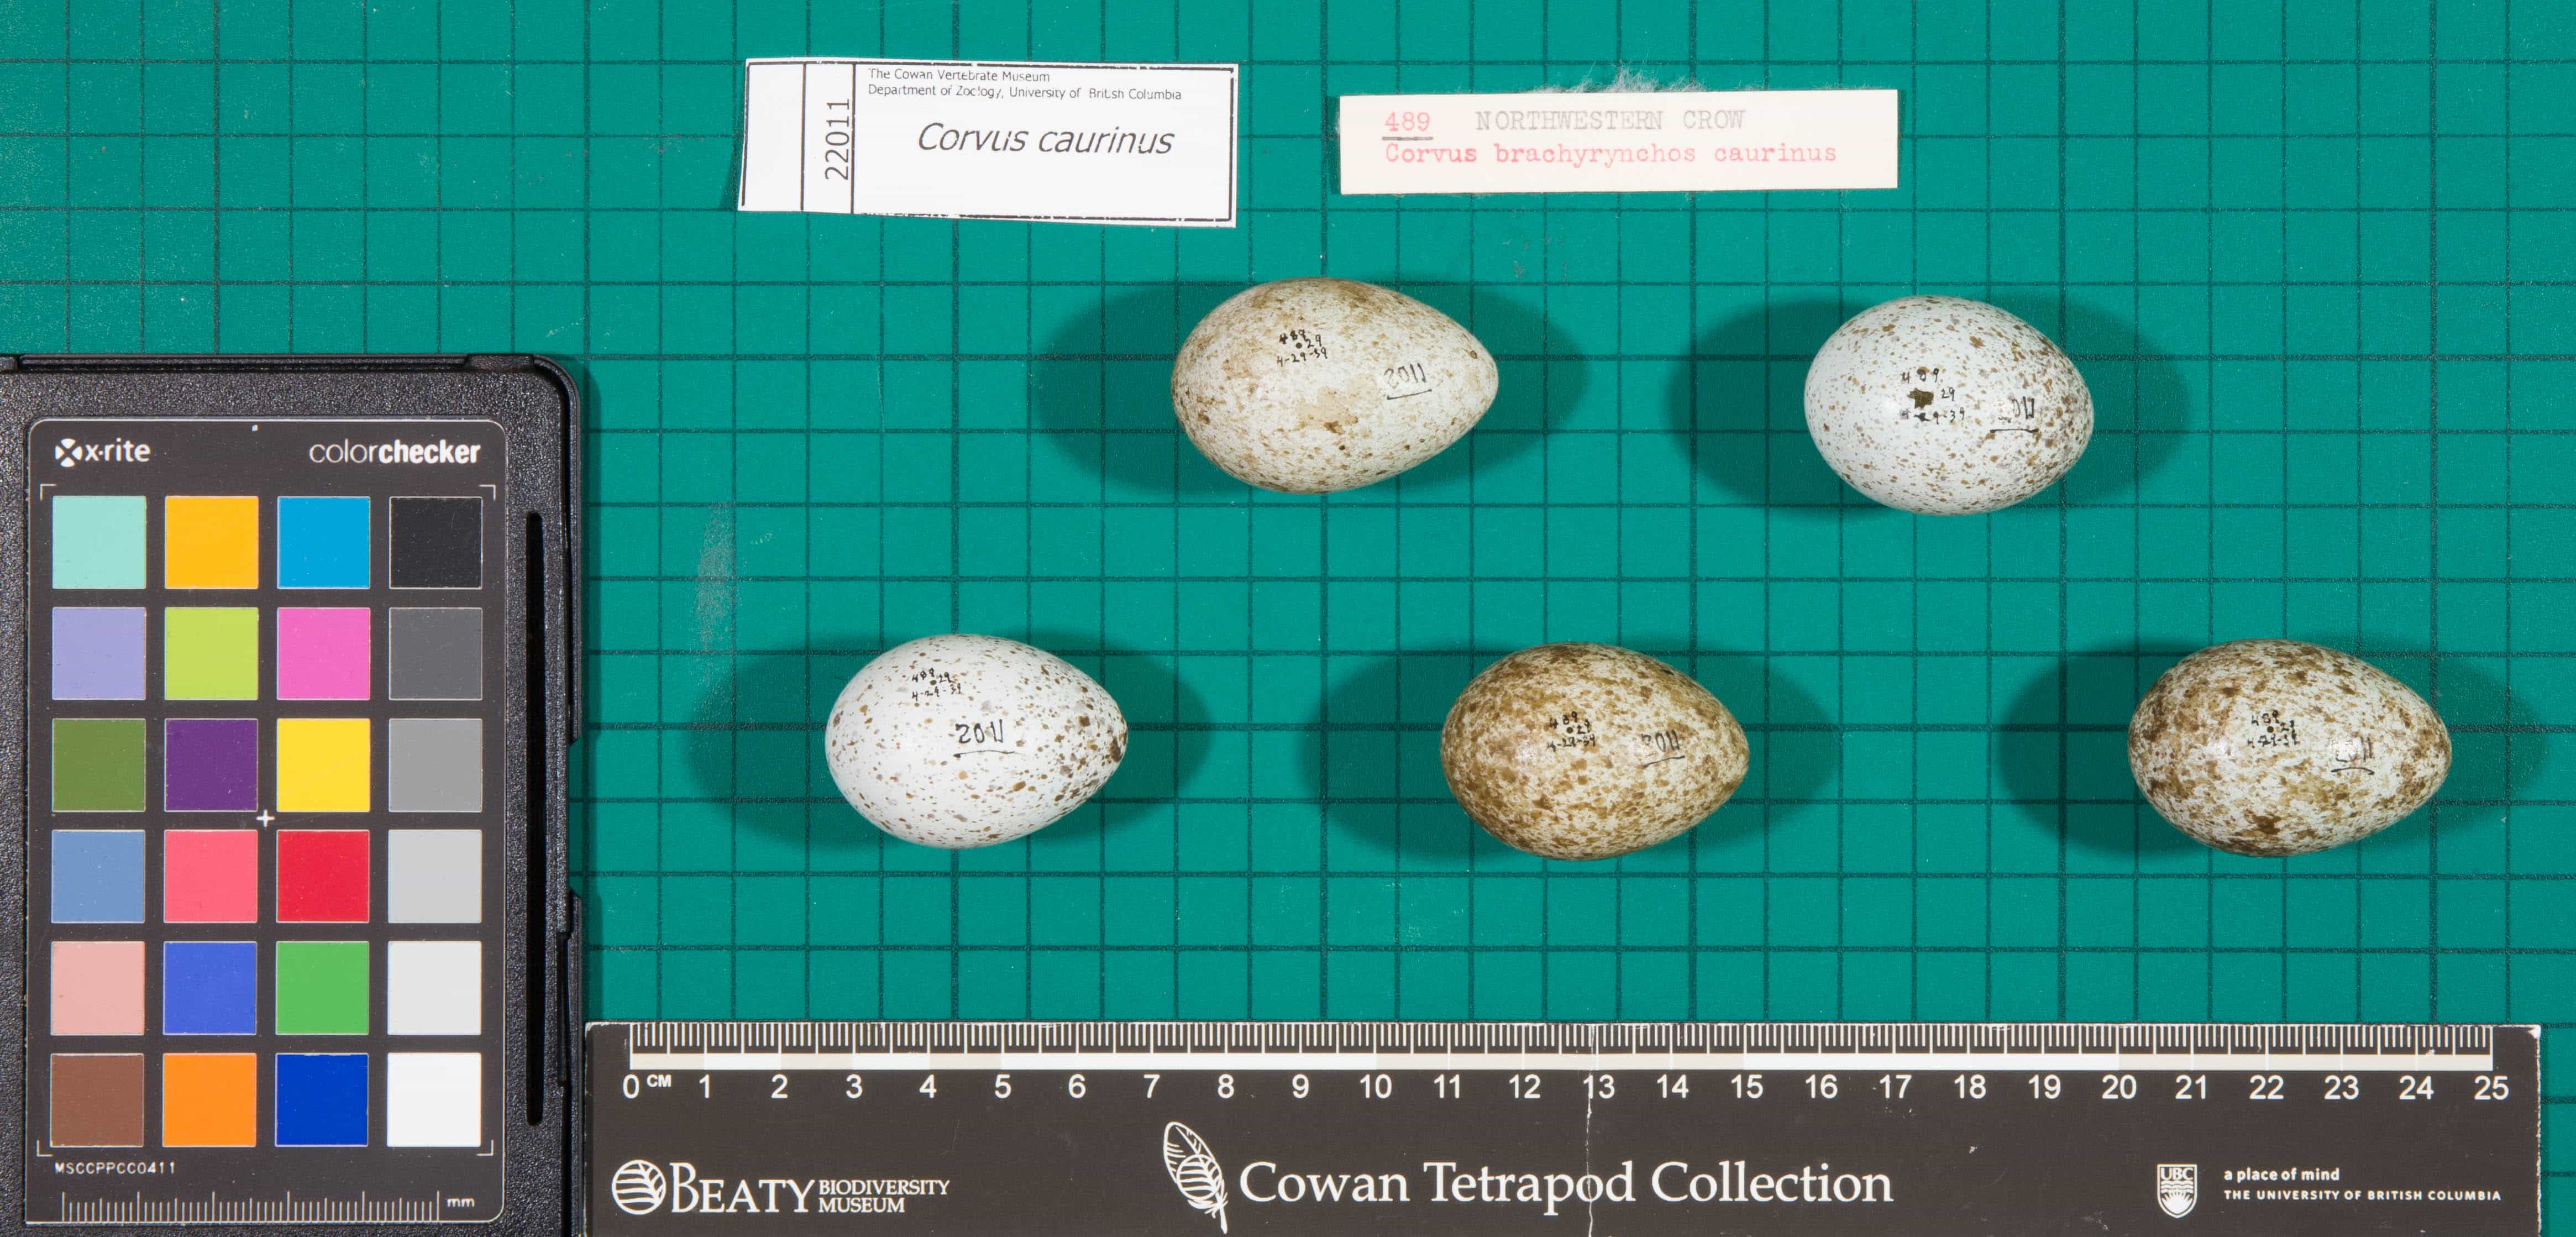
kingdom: Animalia
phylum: Chordata
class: Aves
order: Passeriformes
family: Corvidae
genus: Corvus
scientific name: Corvus brachyrhynchos
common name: American Crow
